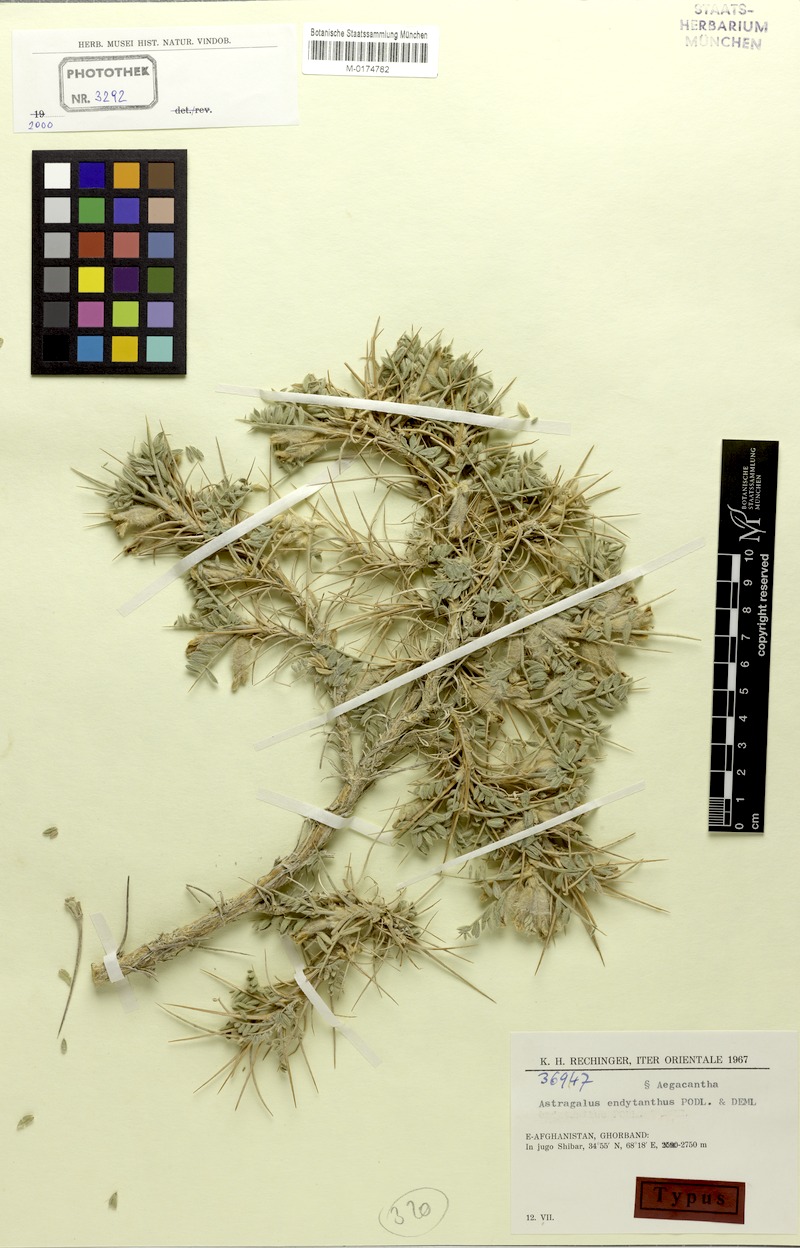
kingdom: Plantae
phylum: Tracheophyta
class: Magnoliopsida
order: Fabales
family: Fabaceae
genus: Astragalus
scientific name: Astragalus endytanthus
